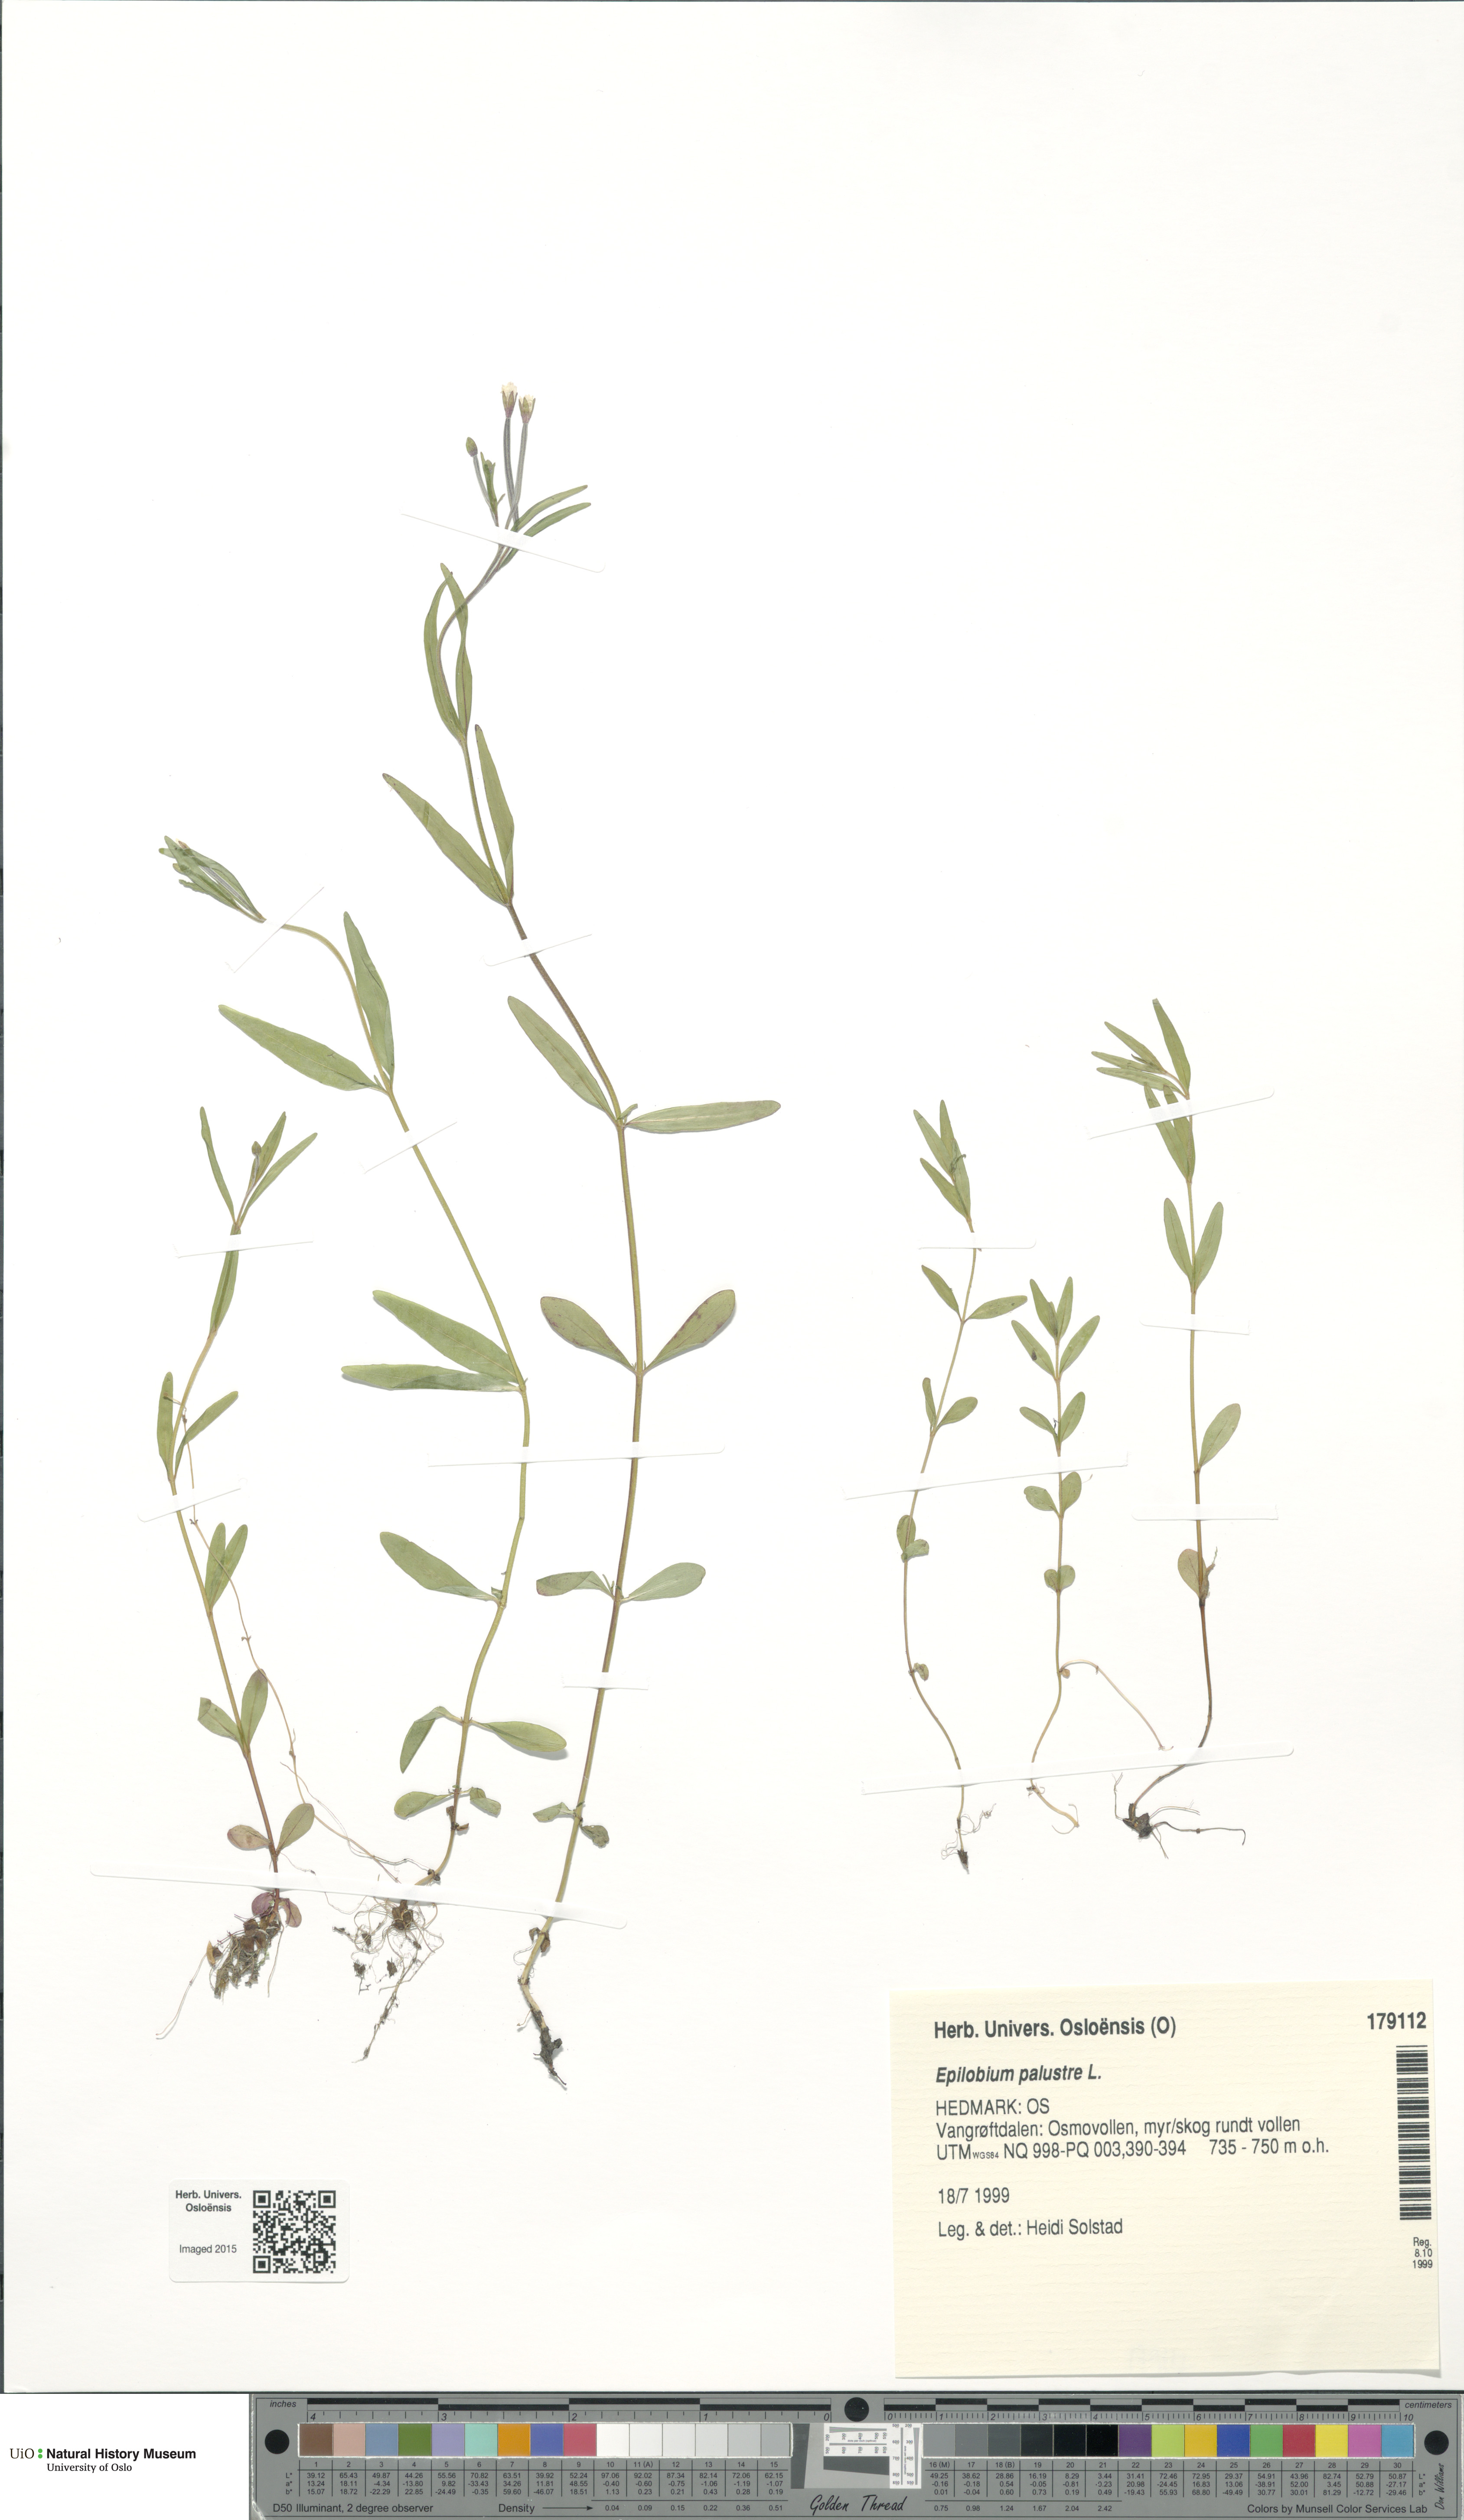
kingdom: Plantae
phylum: Tracheophyta
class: Magnoliopsida
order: Myrtales
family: Onagraceae
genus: Epilobium
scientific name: Epilobium palustre
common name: Marsh willowherb
